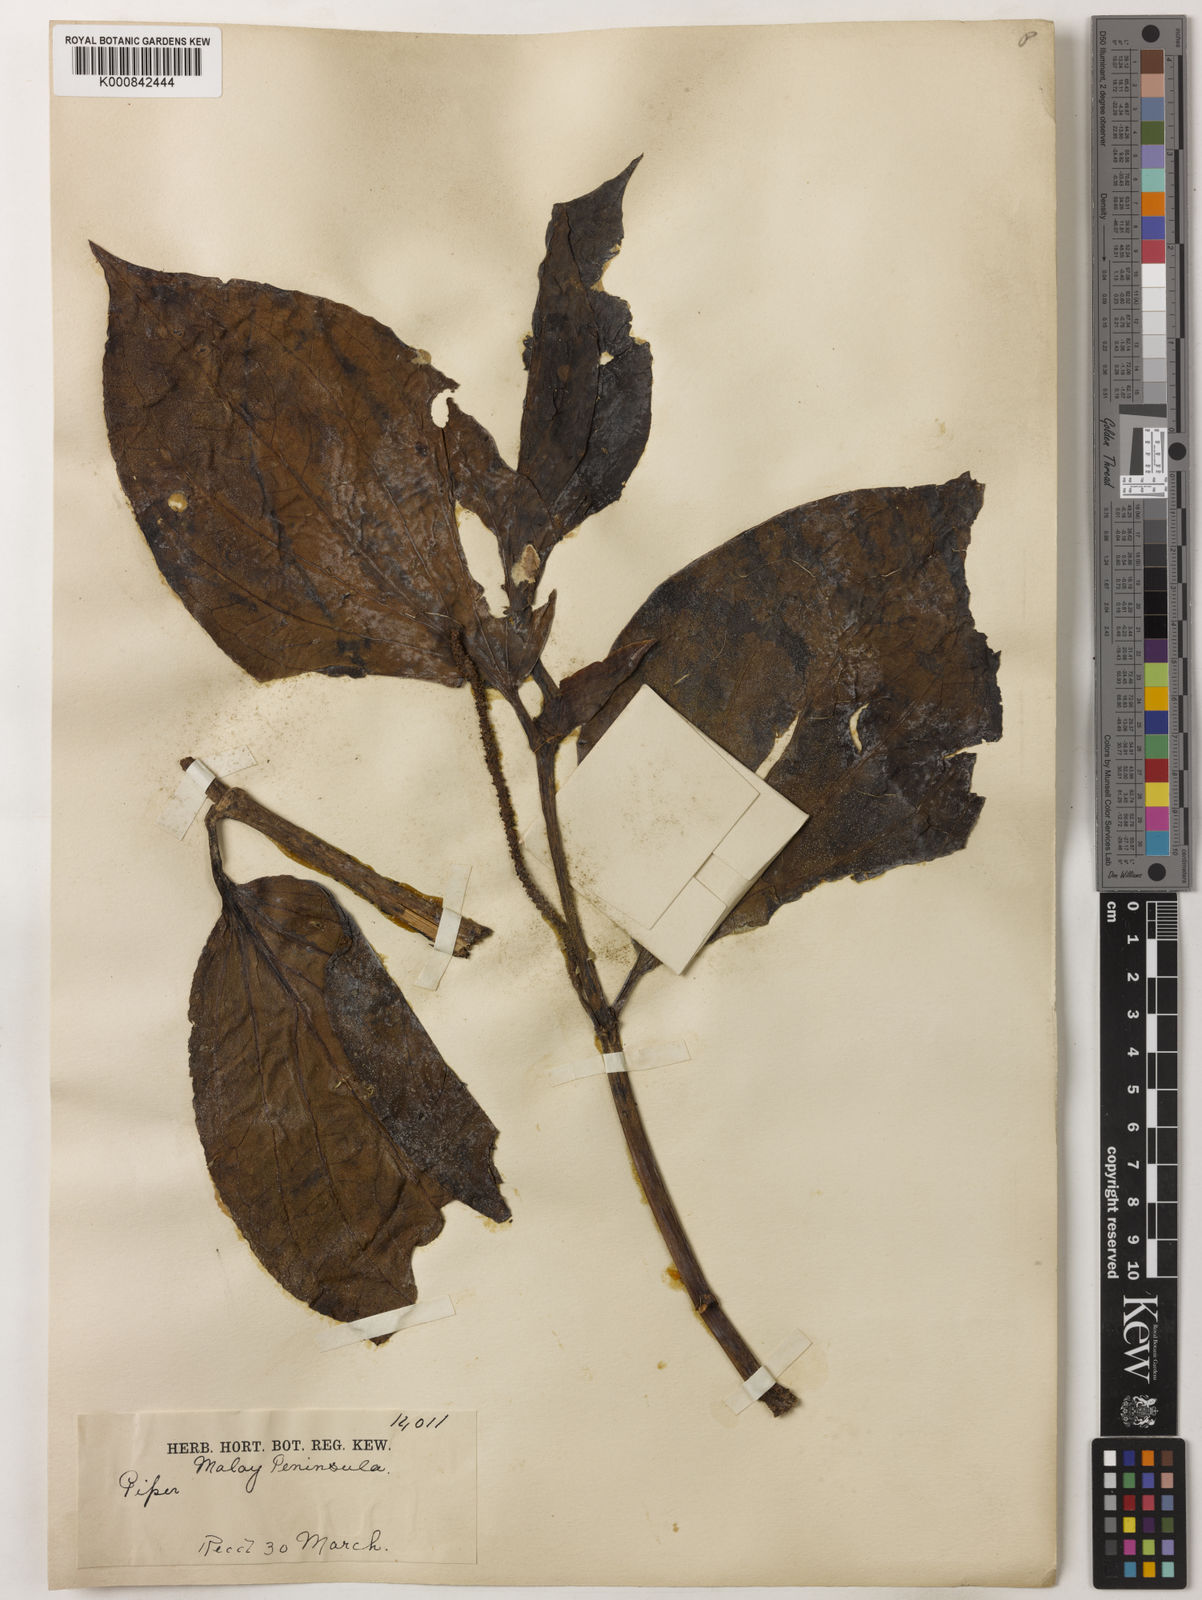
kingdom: Plantae
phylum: Tracheophyta
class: Magnoliopsida
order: Piperales
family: Piperaceae
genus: Piper
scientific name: Piper quinqueangulatum
